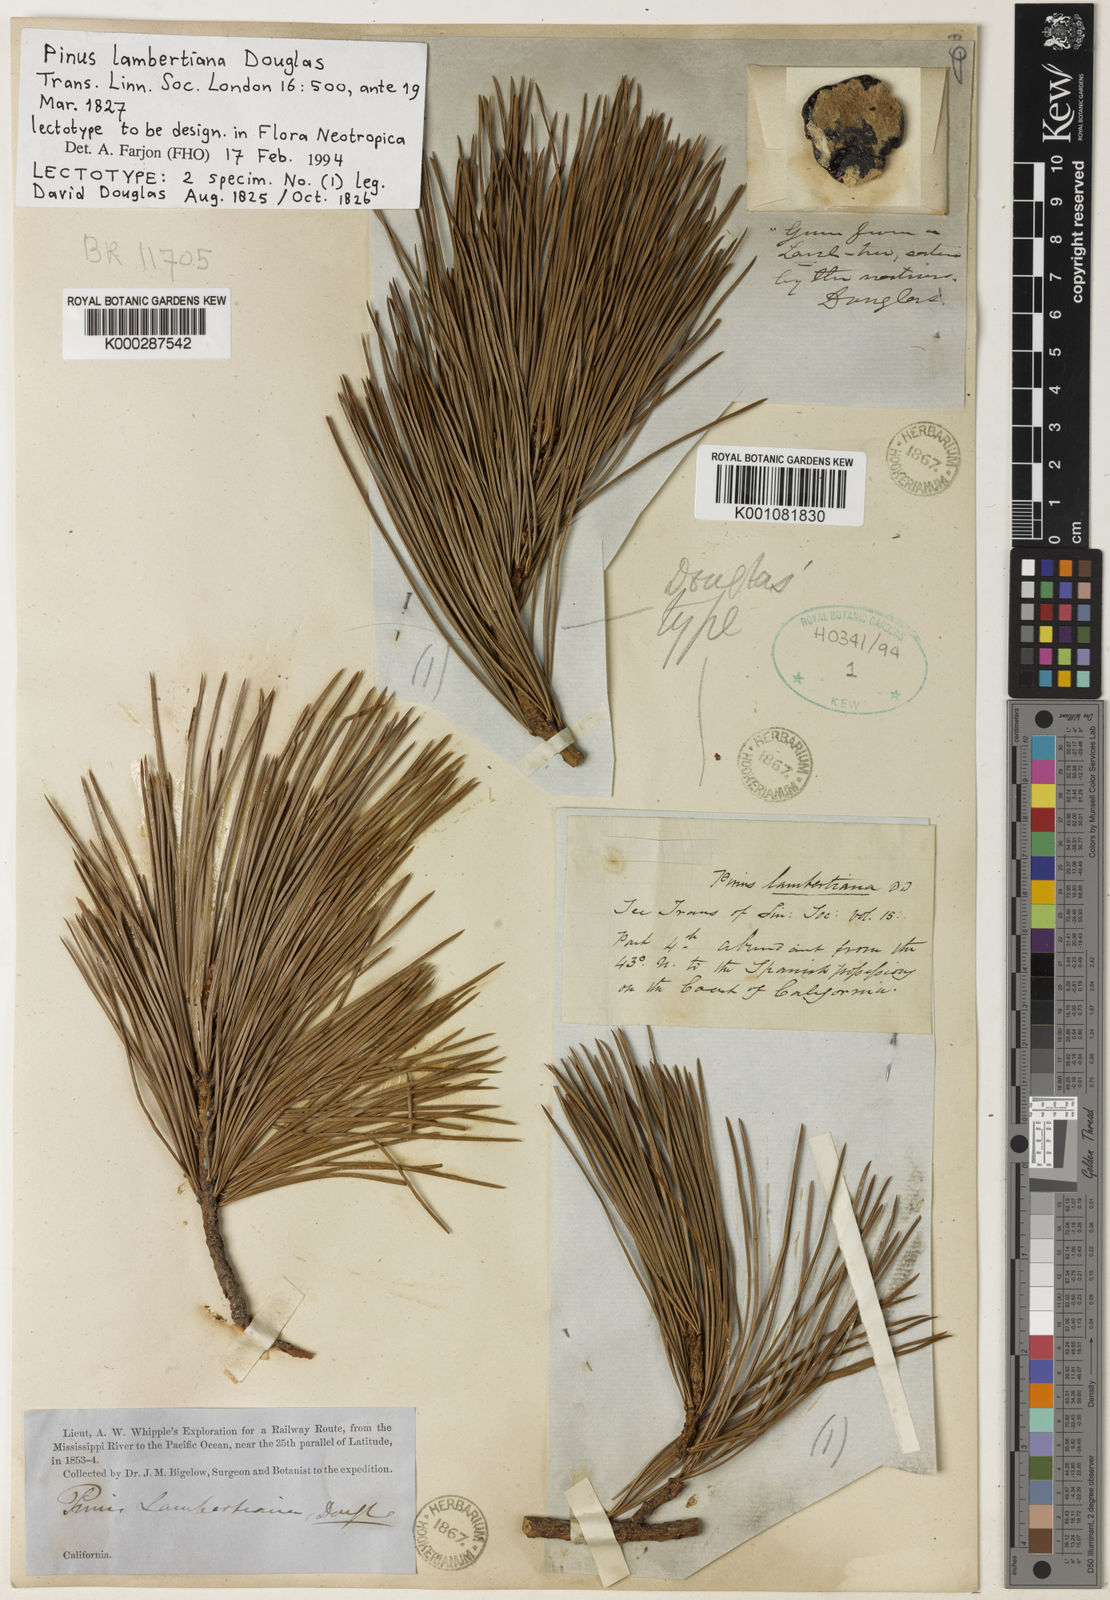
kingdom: Plantae
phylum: Tracheophyta
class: Pinopsida
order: Pinales
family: Pinaceae
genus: Pinus
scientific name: Pinus lambertiana
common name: Sugar pine
